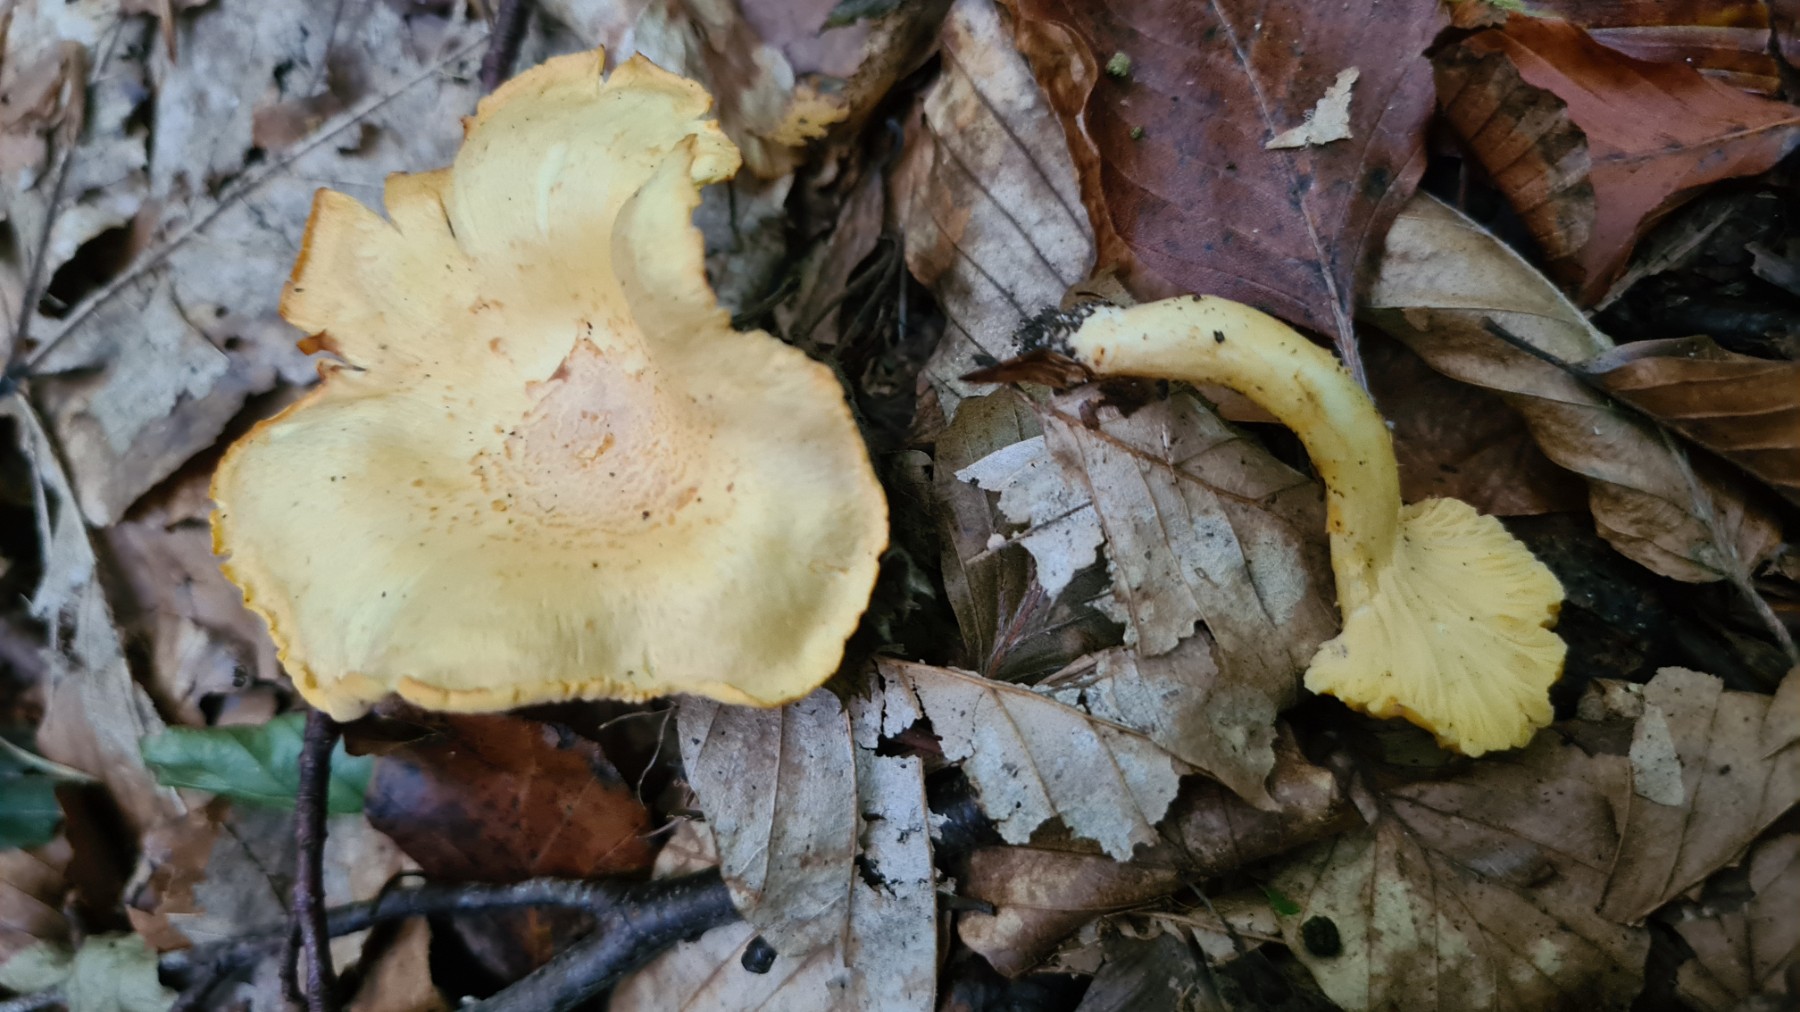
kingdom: Fungi
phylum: Basidiomycota
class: Agaricomycetes
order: Cantharellales
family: Hydnaceae
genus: Cantharellus
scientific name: Cantharellus amethysteus
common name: ametyst-kantarel
